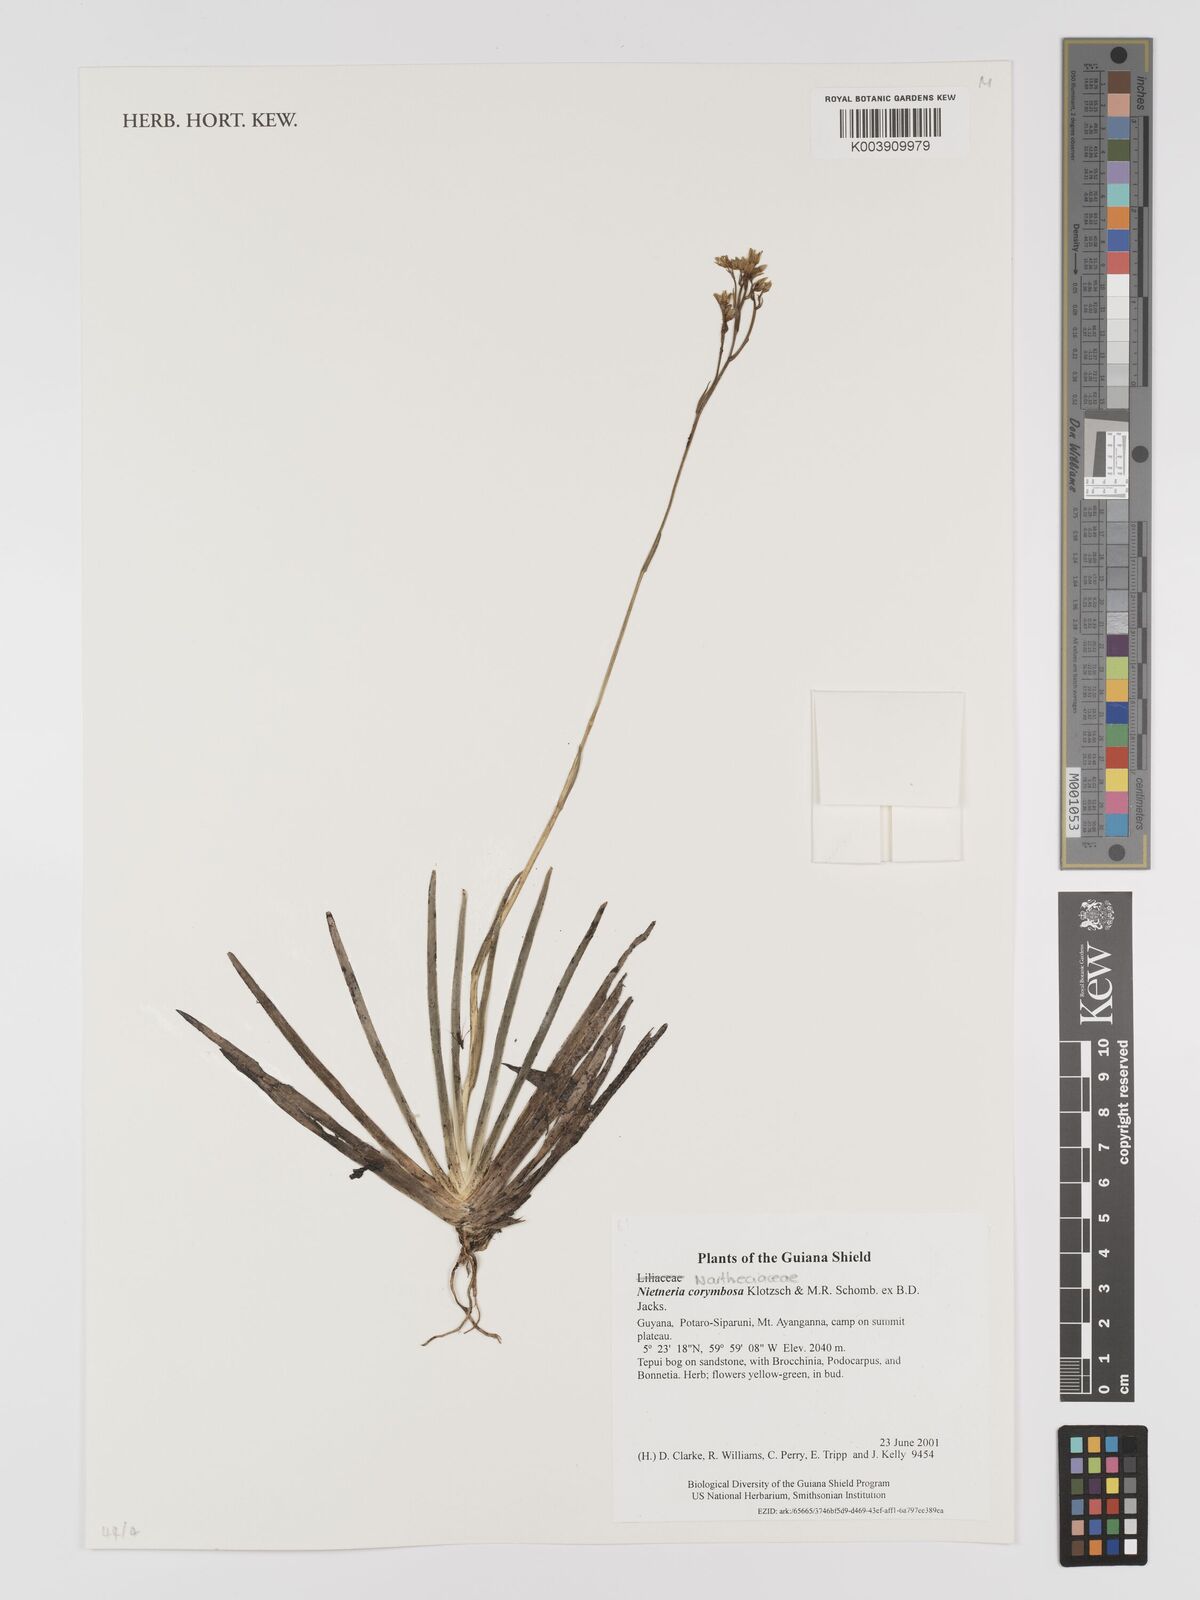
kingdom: Plantae
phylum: Tracheophyta
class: Liliopsida
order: Dioscoreales
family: Nartheciaceae
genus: Nietneria
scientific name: Nietneria corymbosa
